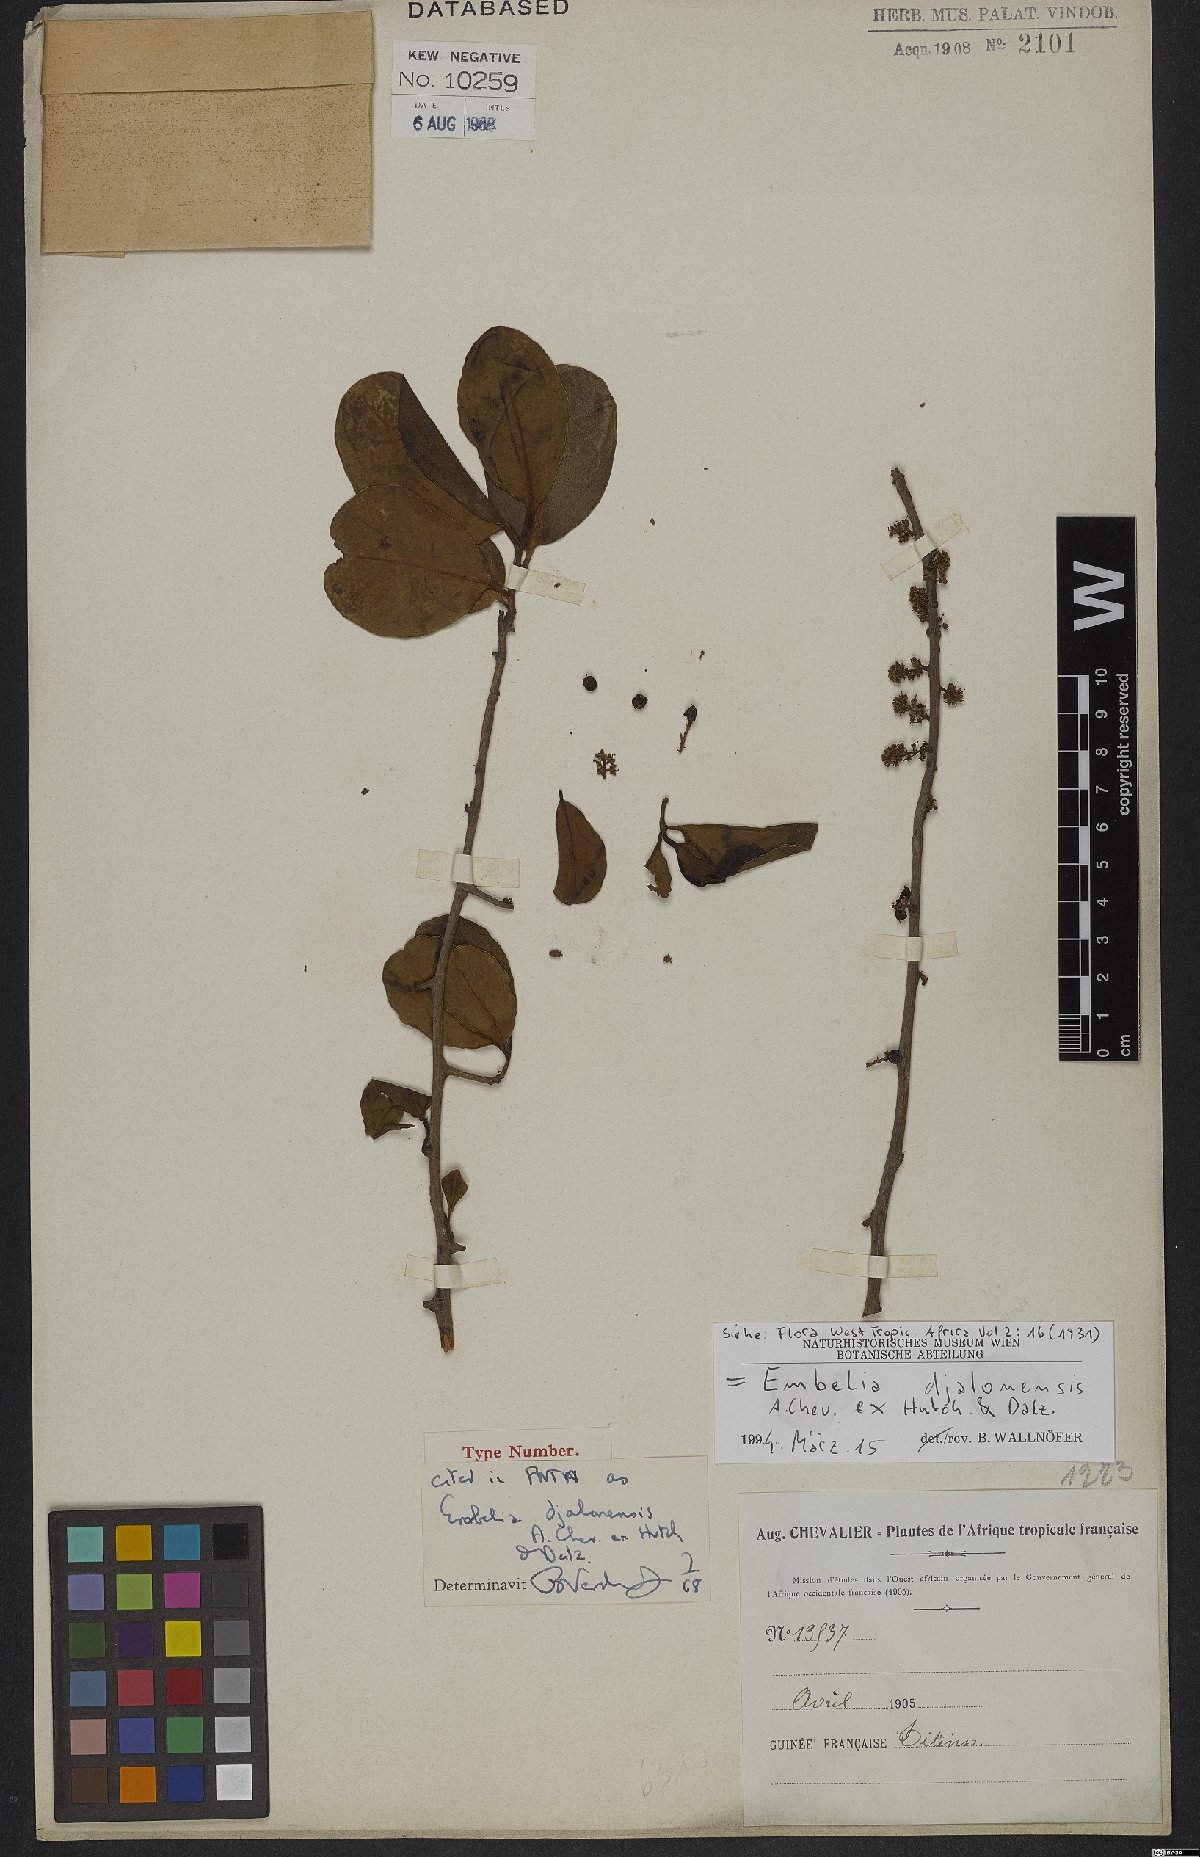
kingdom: Plantae
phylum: Tracheophyta
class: Magnoliopsida
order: Ericales
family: Primulaceae
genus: Embelia
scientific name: Embelia djalonensis
